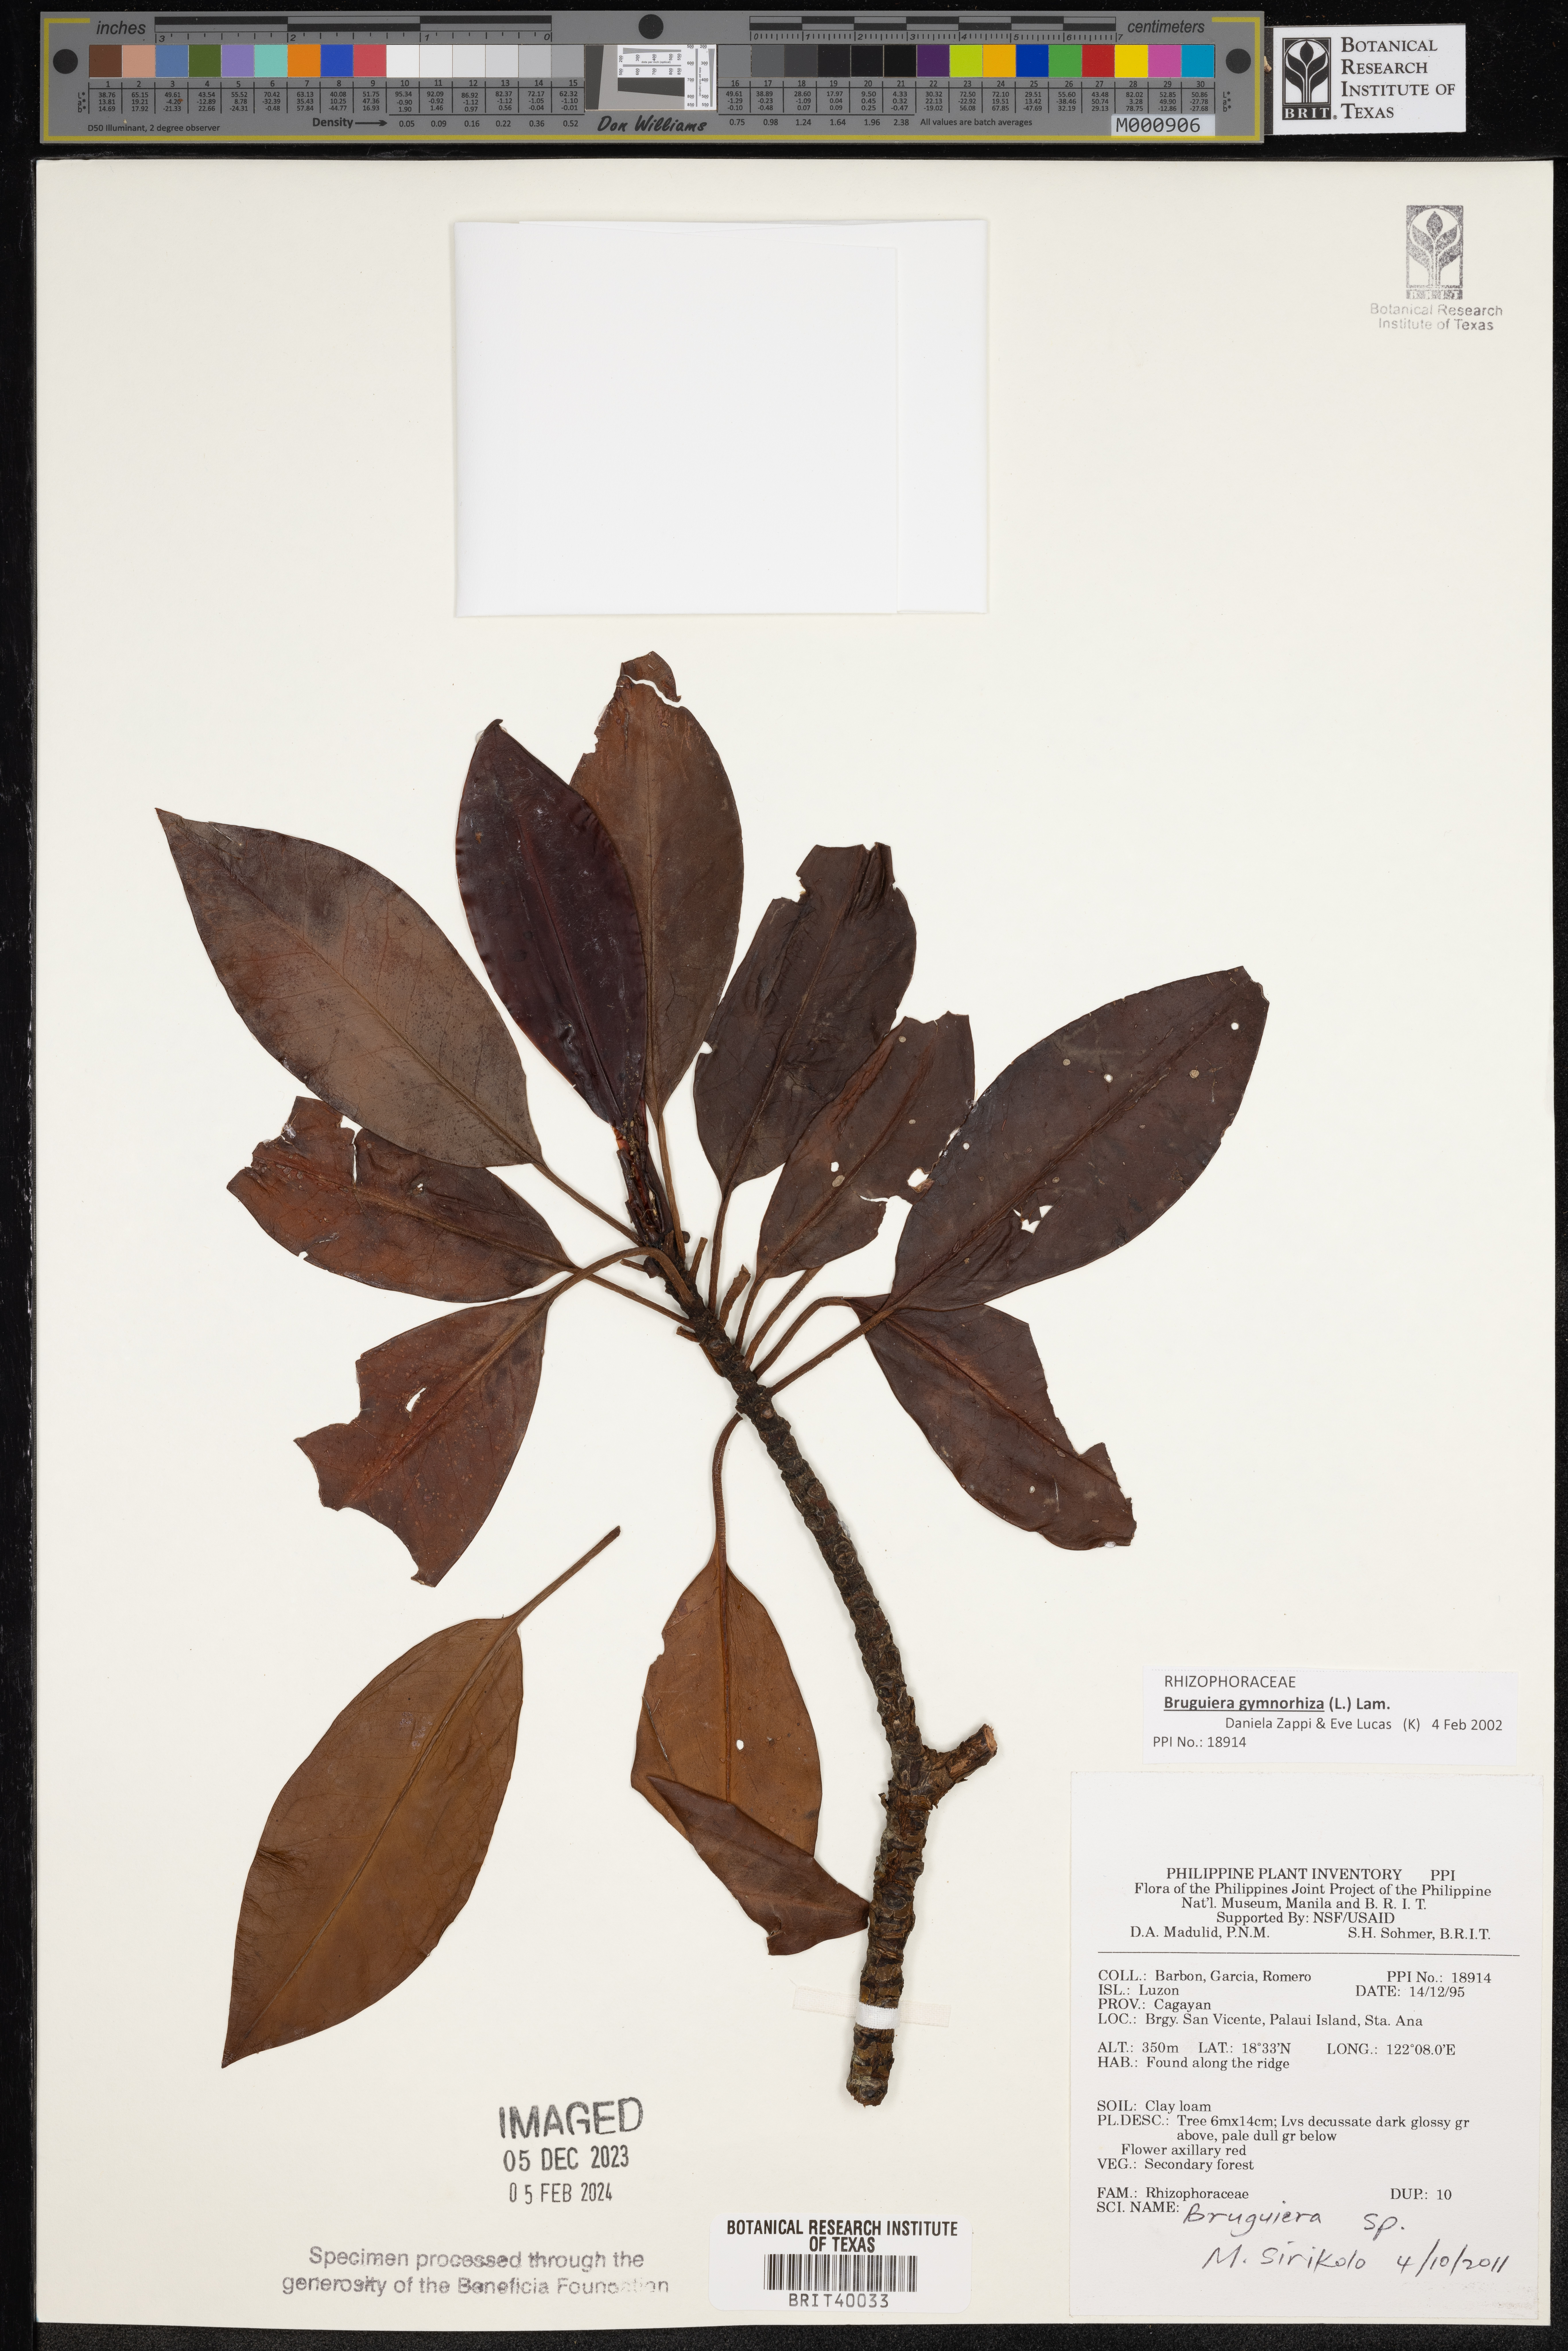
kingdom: Plantae
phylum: Tracheophyta
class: Magnoliopsida
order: Malpighiales
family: Rhizophoraceae
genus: Bruguiera
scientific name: Bruguiera
